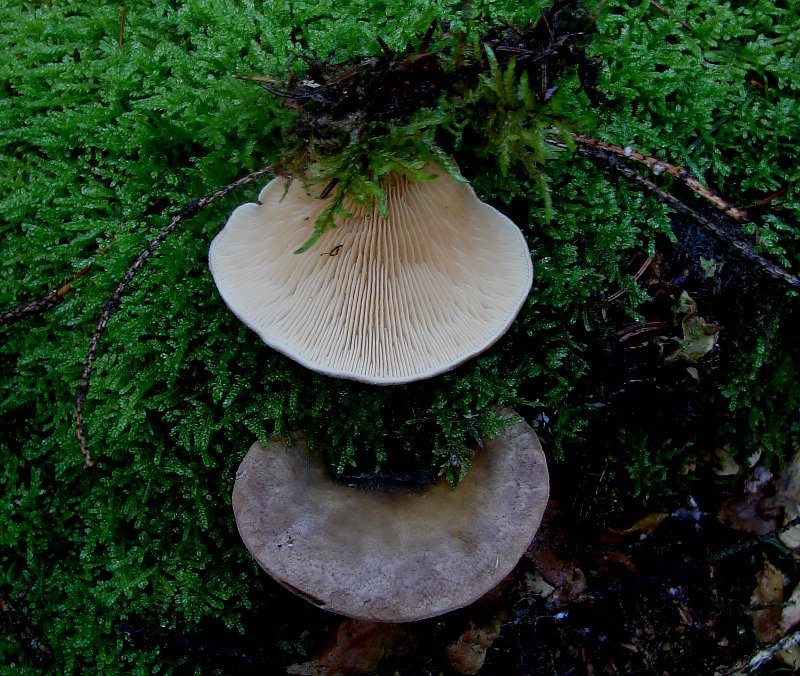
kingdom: Fungi
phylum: Basidiomycota
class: Agaricomycetes
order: Boletales
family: Tapinellaceae
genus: Tapinella
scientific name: Tapinella panuoides
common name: tømmer-viftesvamp
